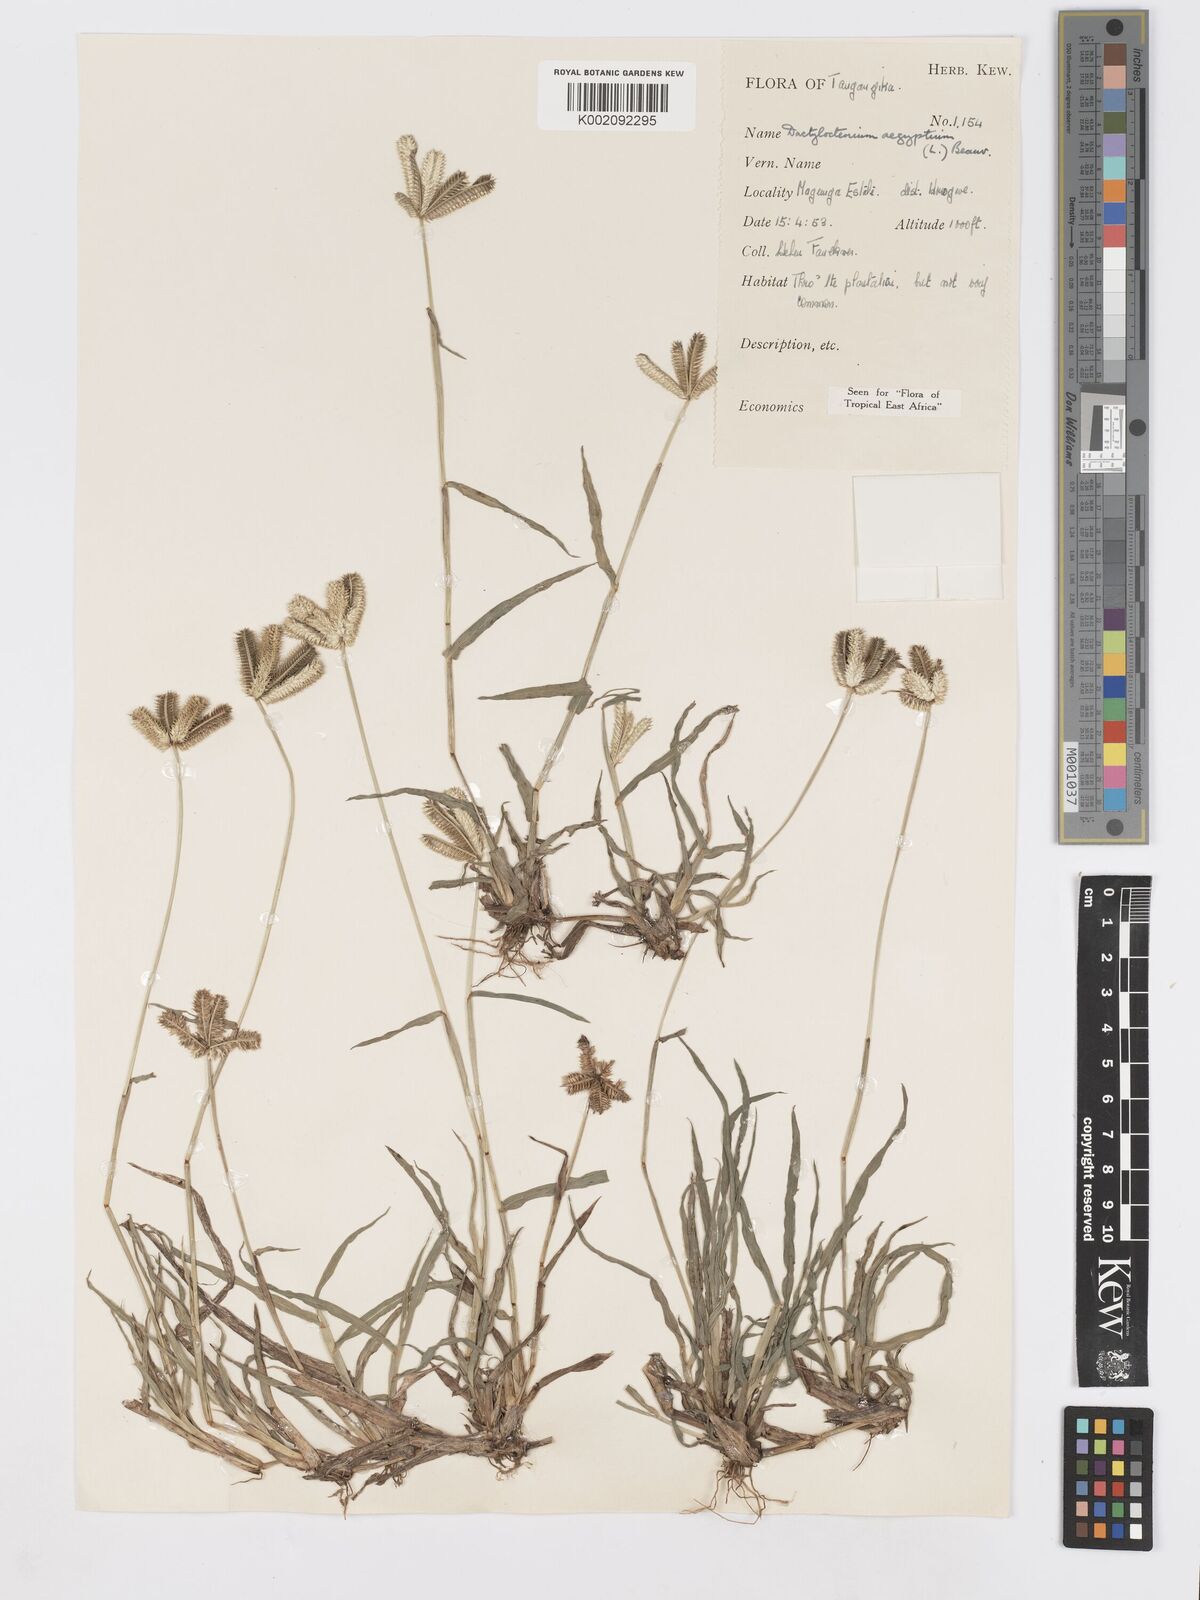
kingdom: Plantae
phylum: Tracheophyta
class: Liliopsida
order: Poales
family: Poaceae
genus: Dactyloctenium
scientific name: Dactyloctenium aegyptium
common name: Egyptian grass
